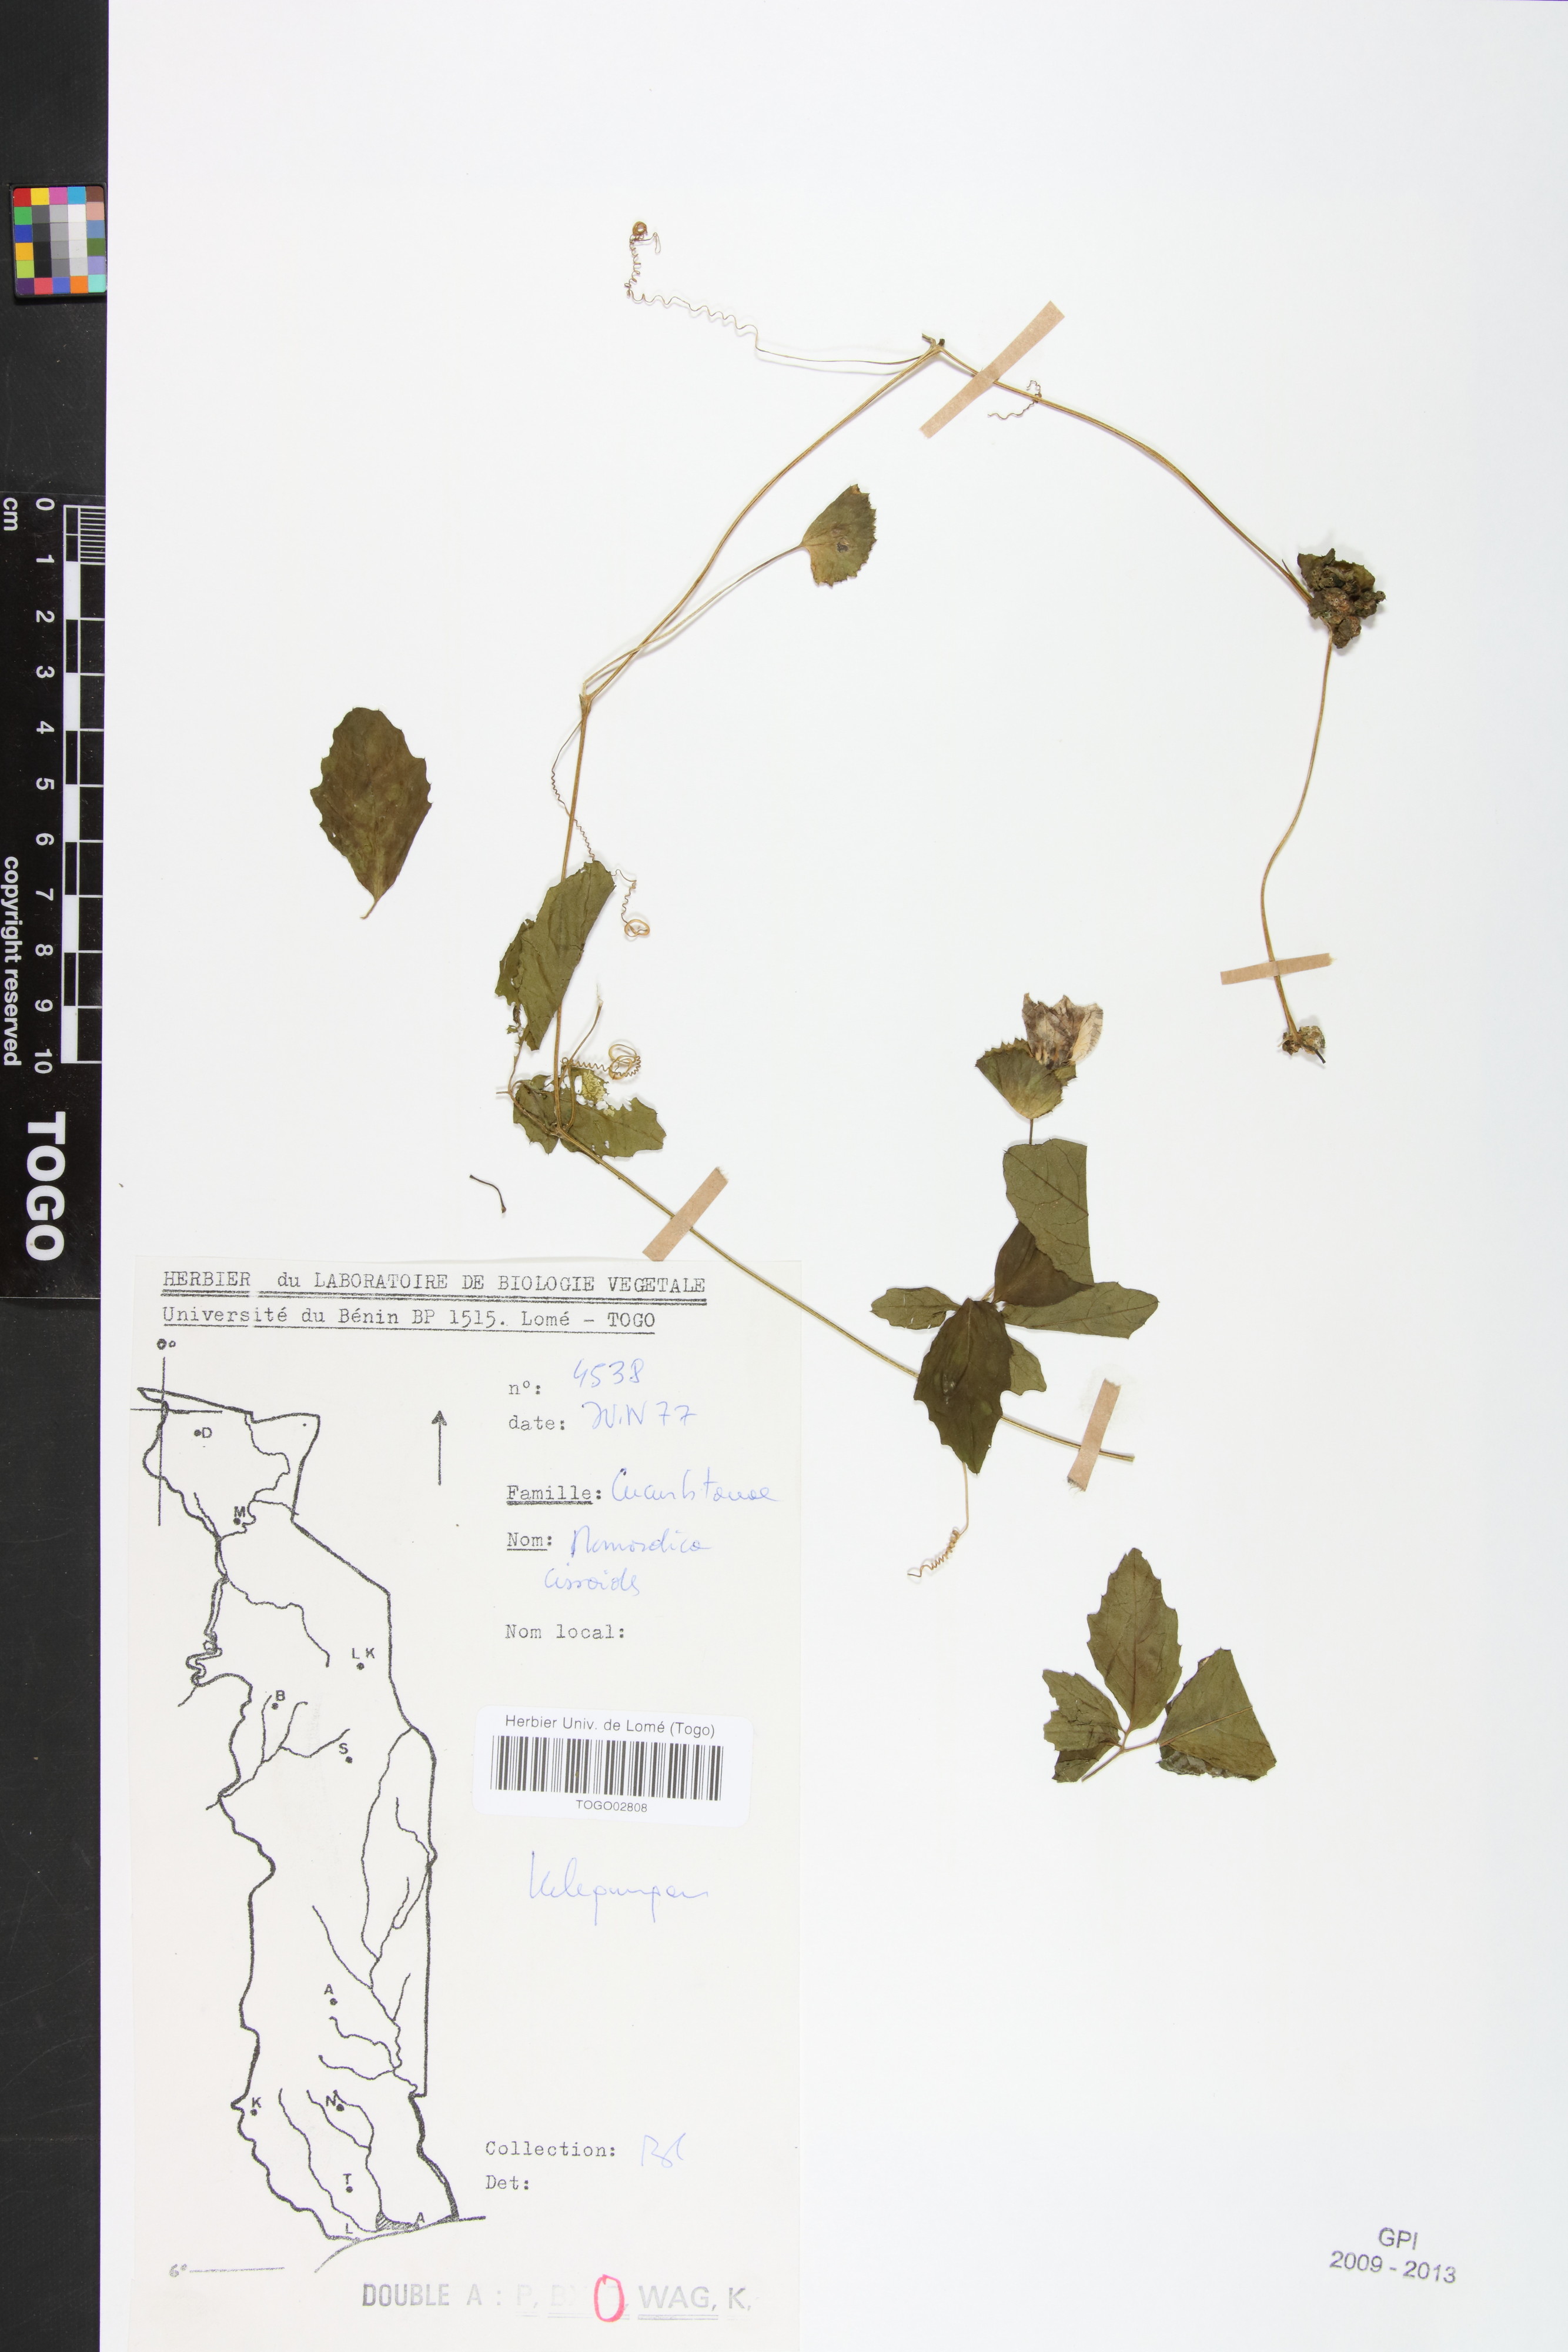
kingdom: Plantae
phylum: Tracheophyta
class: Magnoliopsida
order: Cucurbitales
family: Cucurbitaceae
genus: Momordica
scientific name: Momordica cissoides
